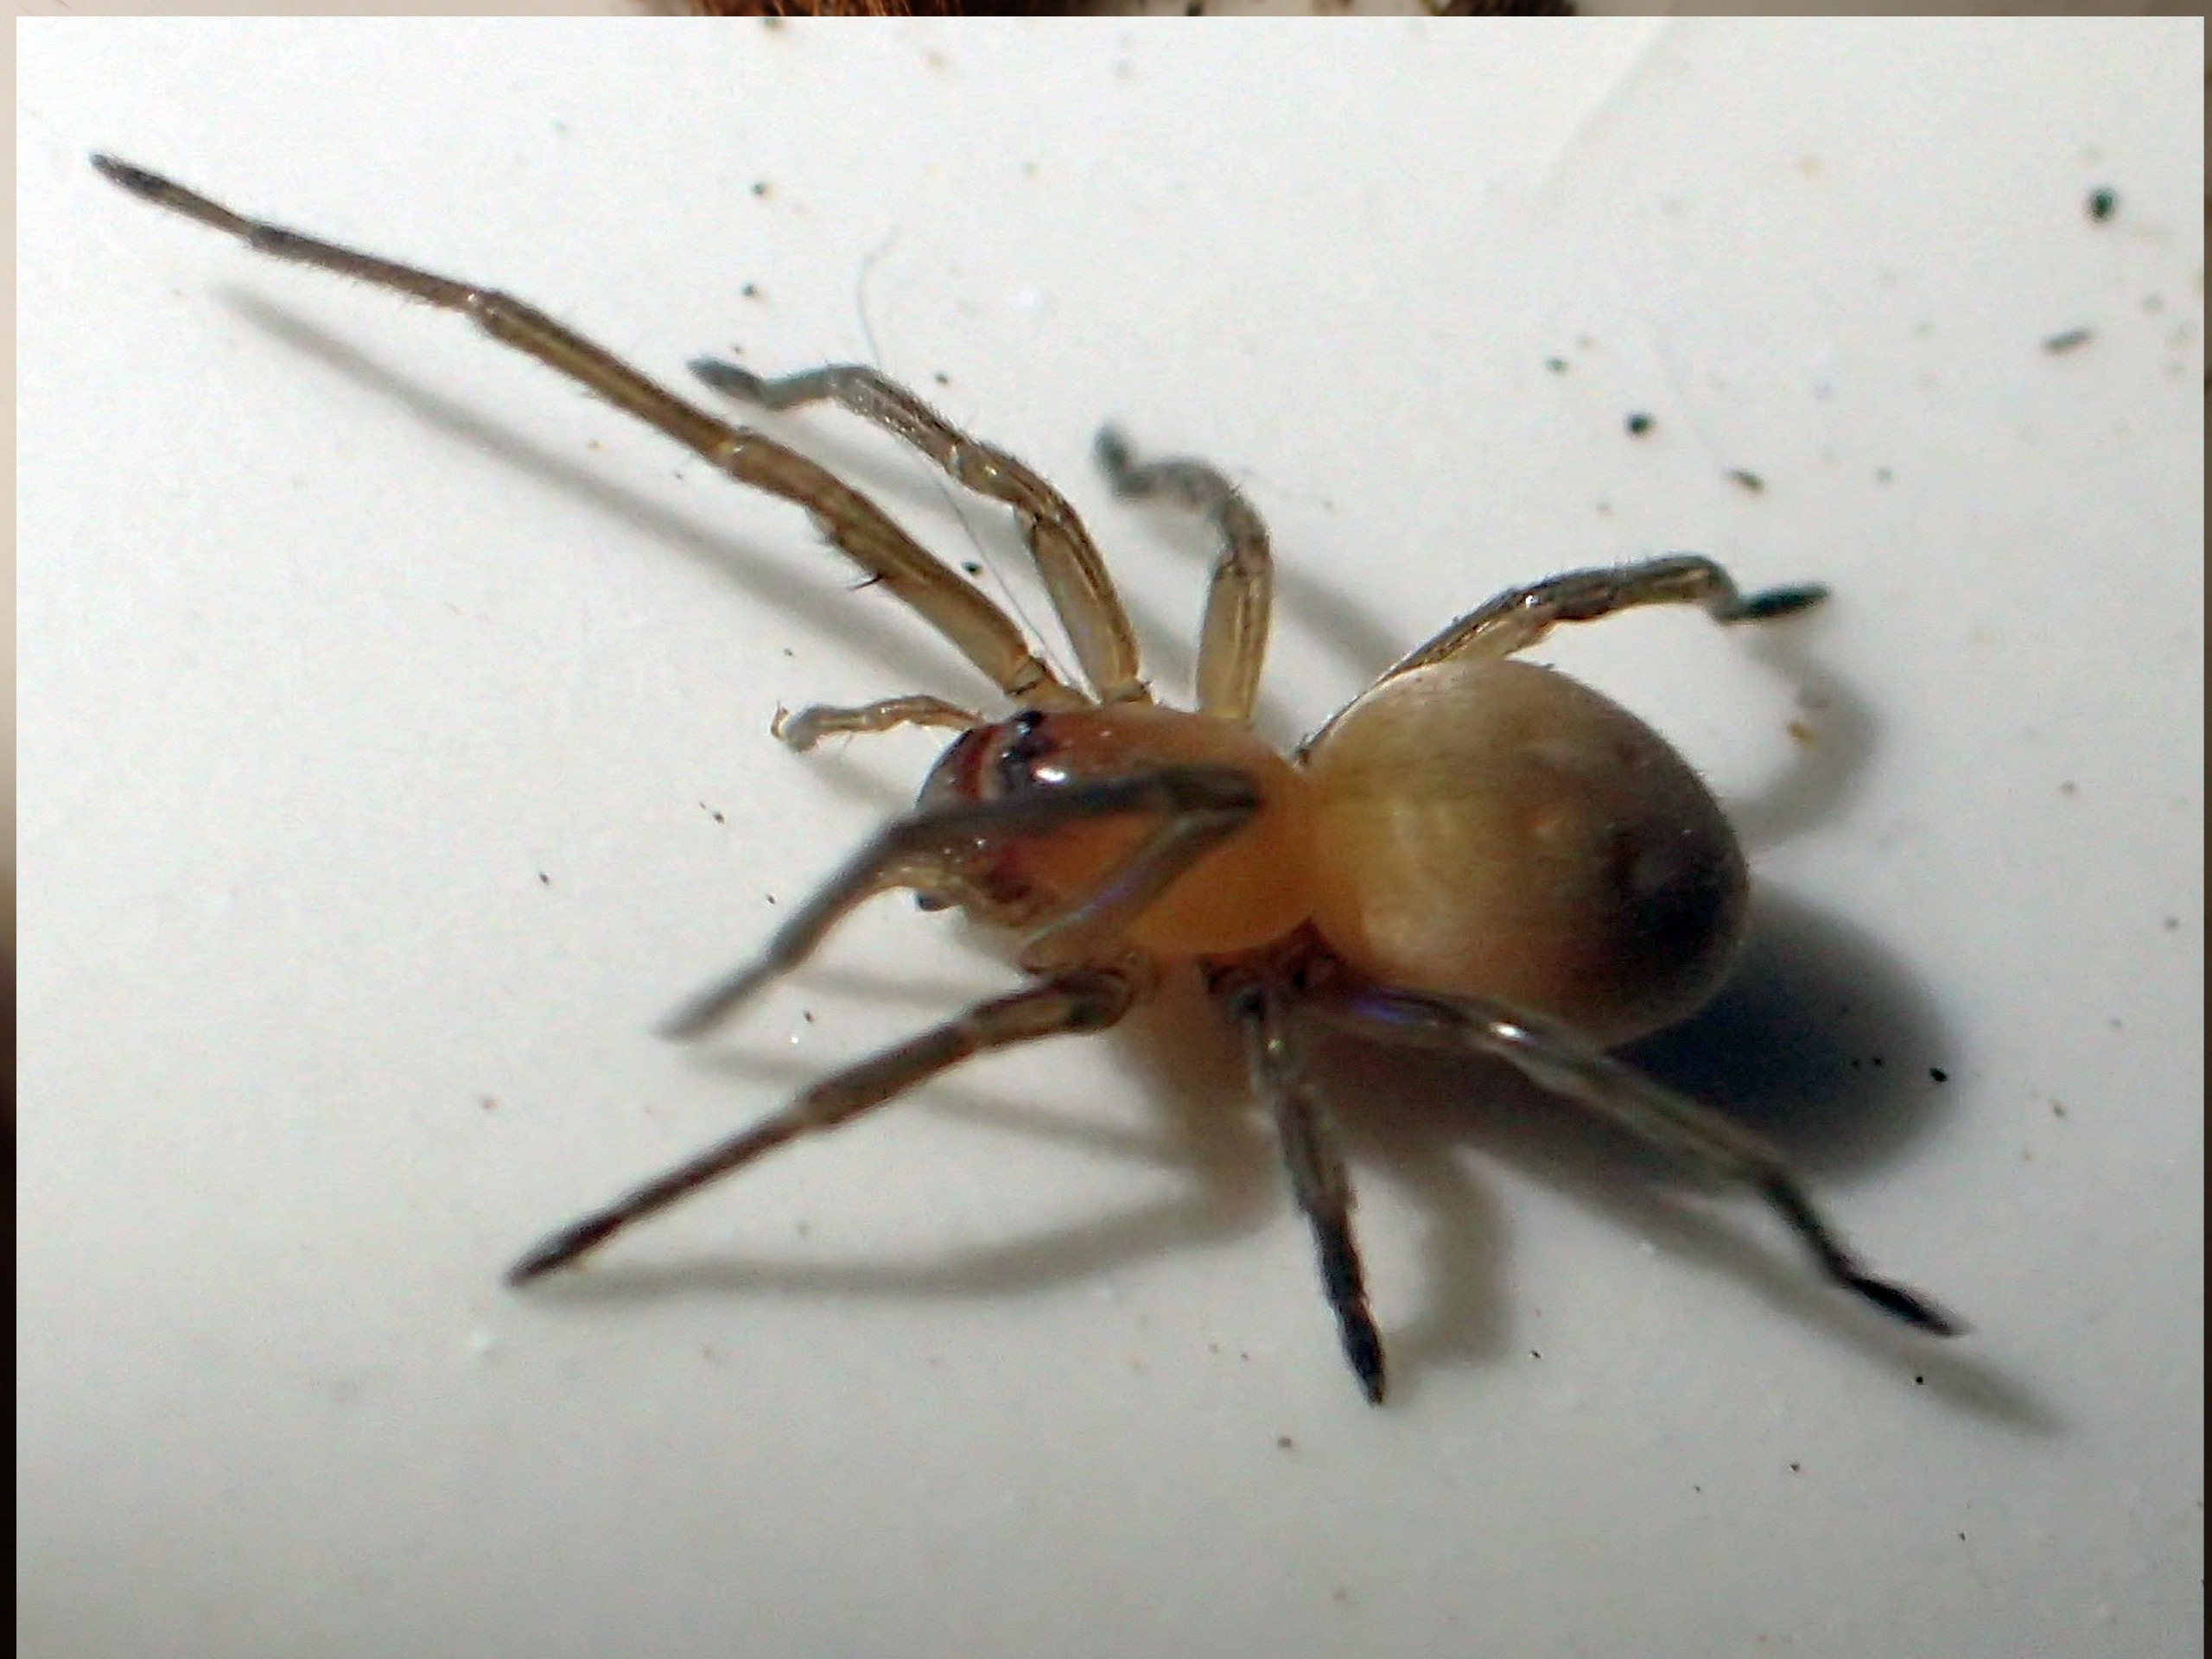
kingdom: Animalia
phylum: Arthropoda
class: Arachnida
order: Araneae
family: Cheiracanthiidae
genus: Cheiracanthium
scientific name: Cheiracanthium
